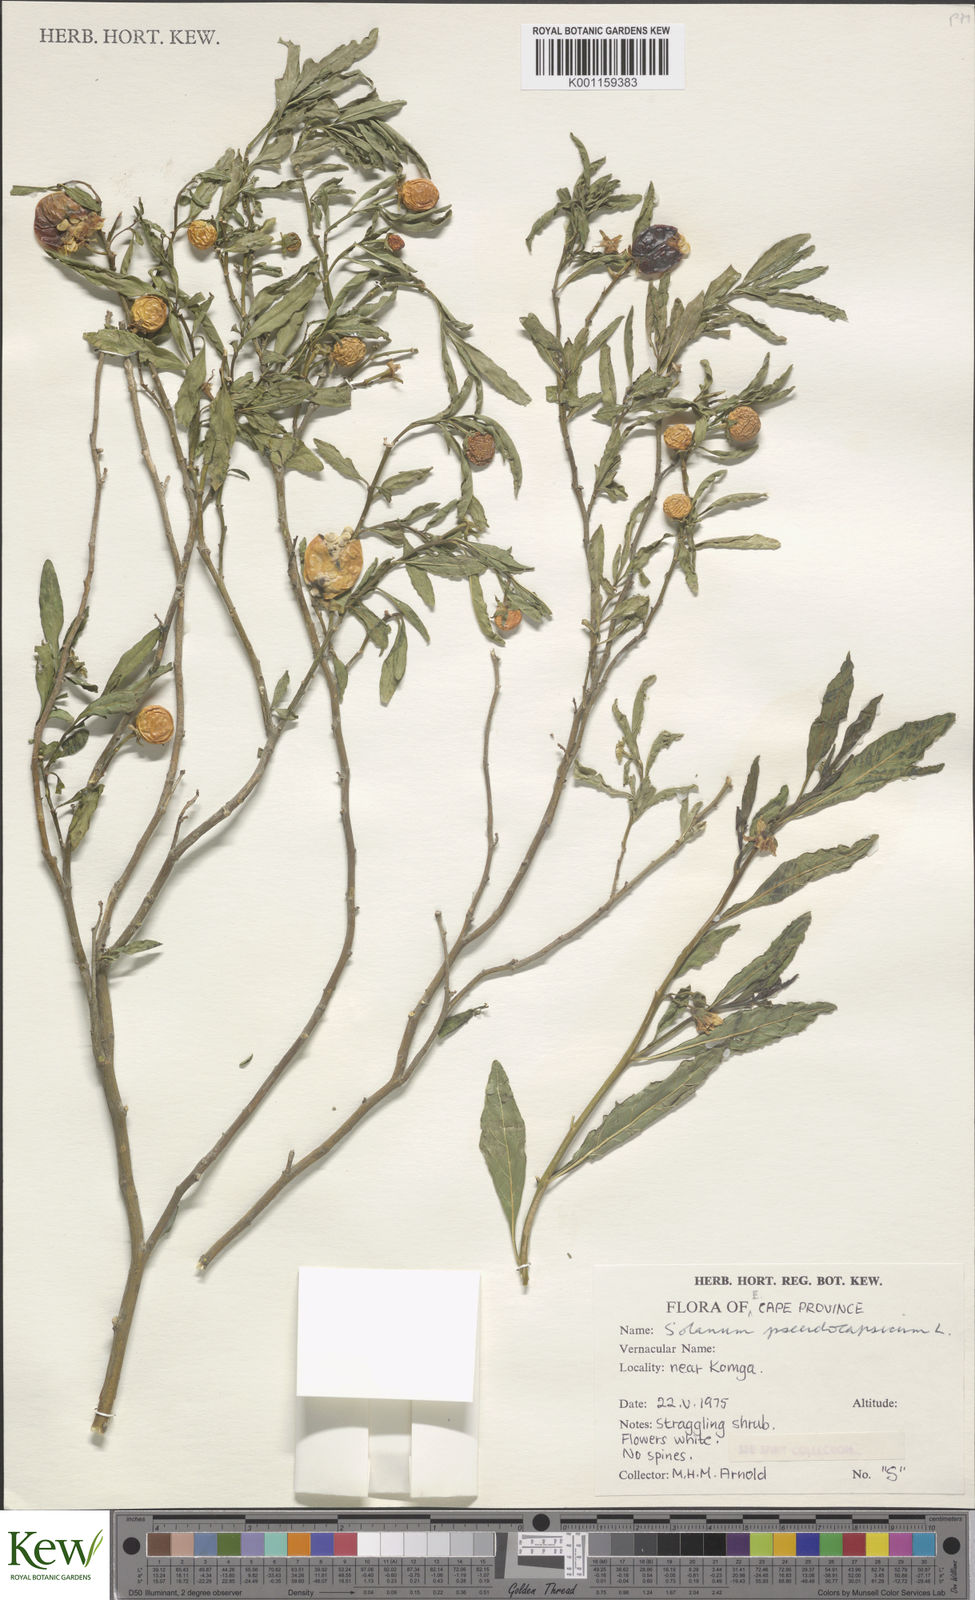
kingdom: Plantae
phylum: Tracheophyta
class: Magnoliopsida
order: Solanales
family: Solanaceae
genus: Solanum
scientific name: Solanum pseudocapsicum
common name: Jerusalem cherry
